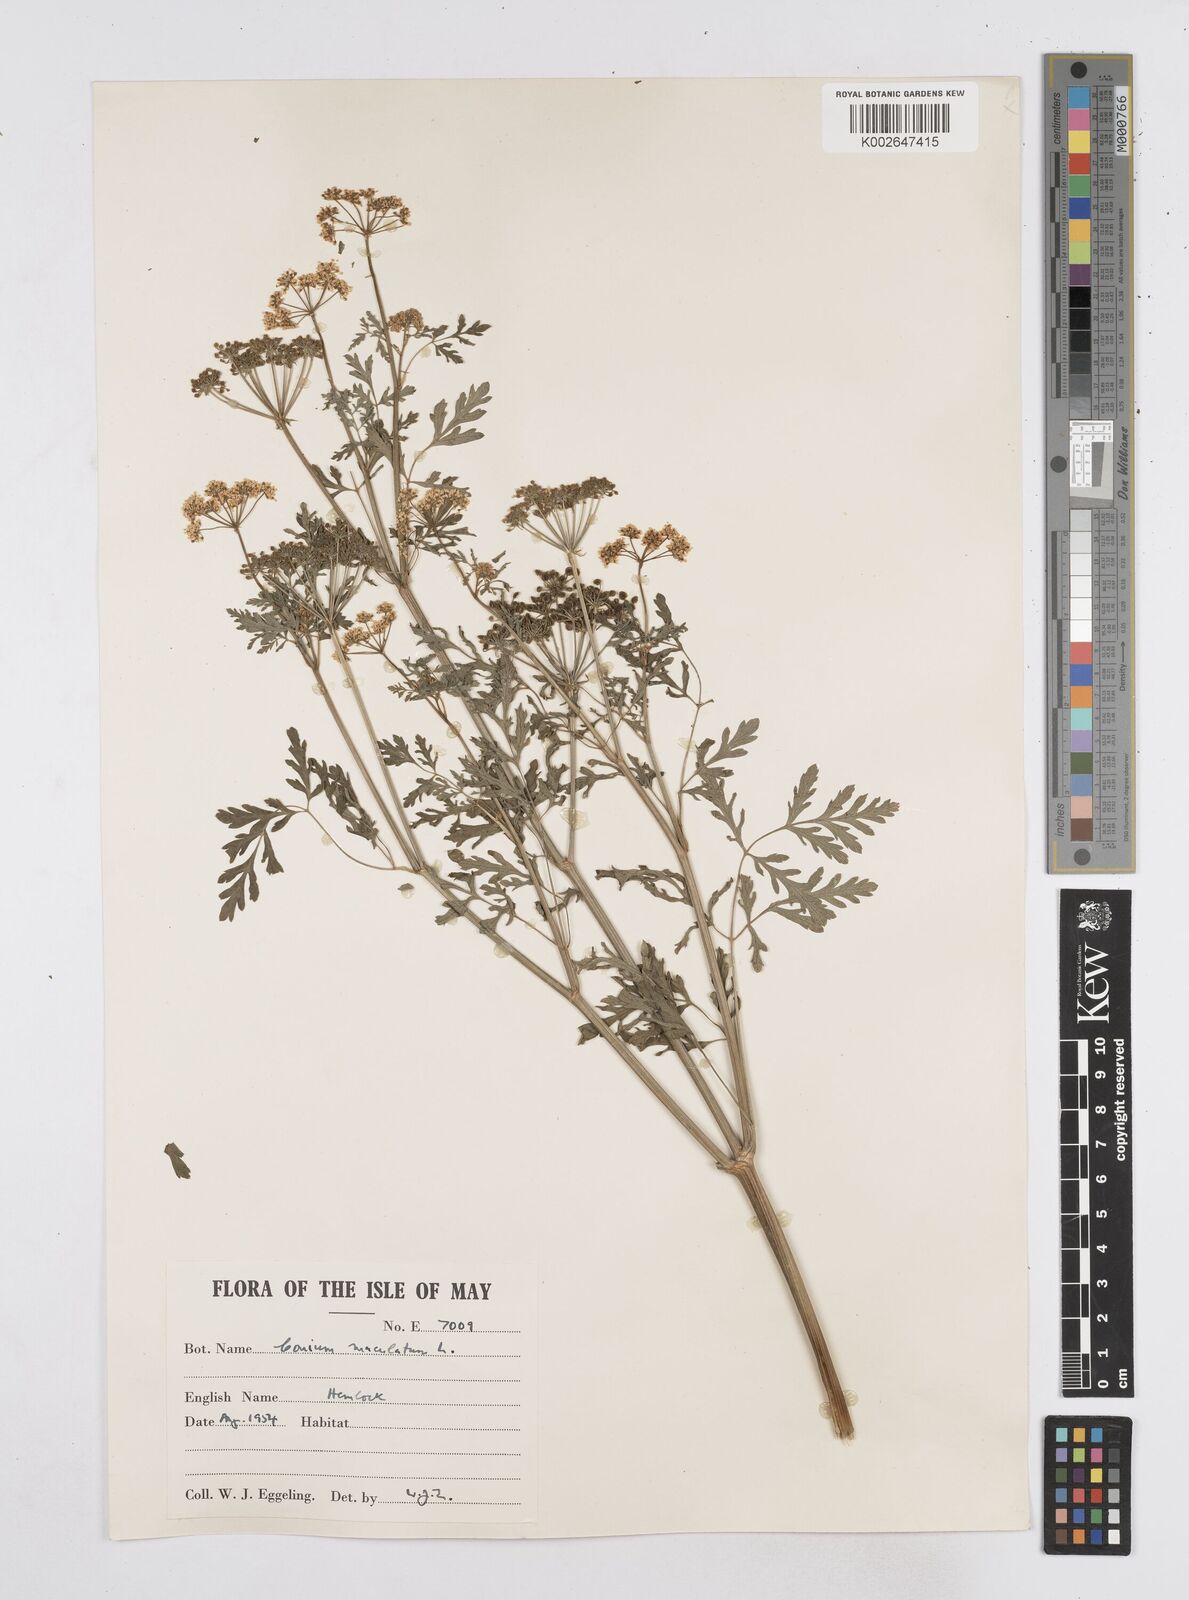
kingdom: Plantae
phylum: Tracheophyta
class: Magnoliopsida
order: Apiales
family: Apiaceae
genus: Conium
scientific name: Conium maculatum
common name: Hemlock
